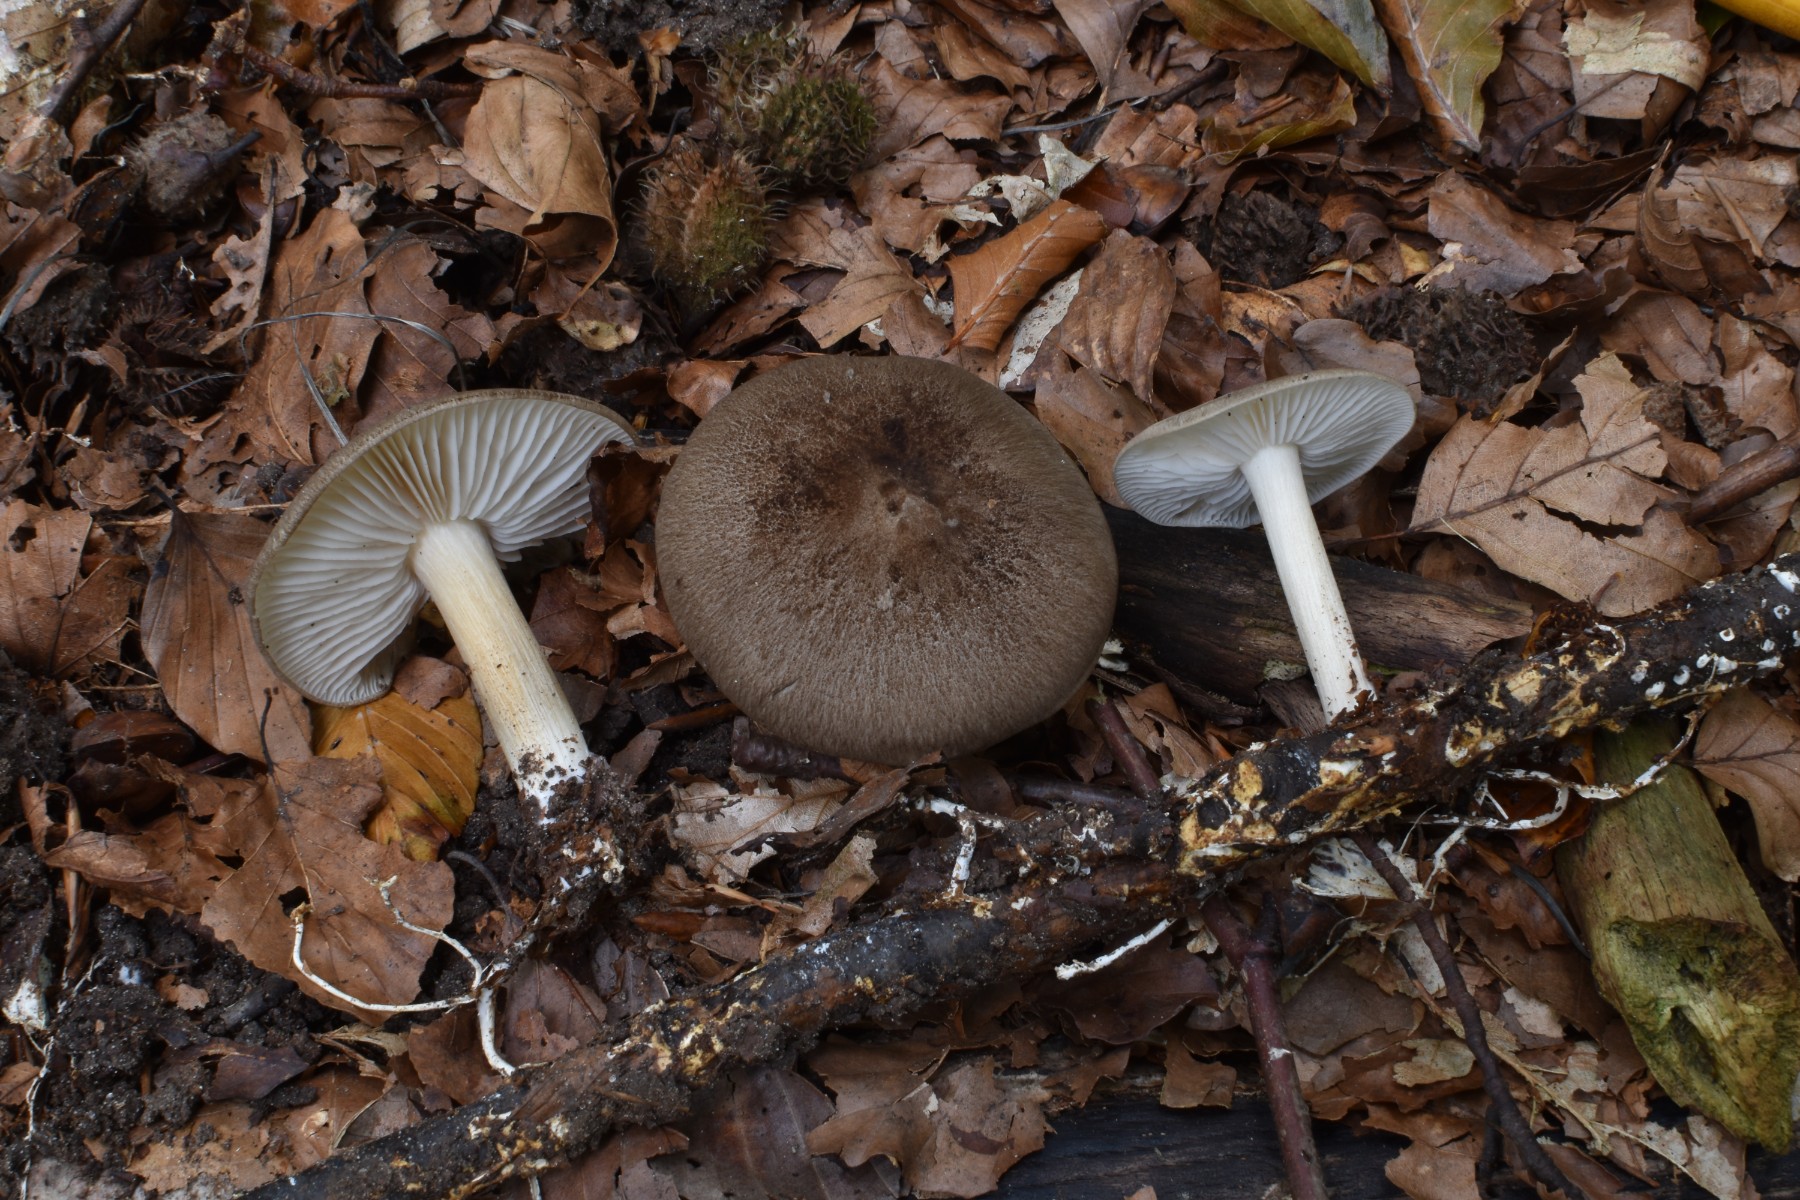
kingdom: Fungi
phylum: Basidiomycota
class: Agaricomycetes
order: Agaricales
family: Tricholomataceae
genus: Megacollybia
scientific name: Megacollybia platyphylla
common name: bredbladet væbnerhat
